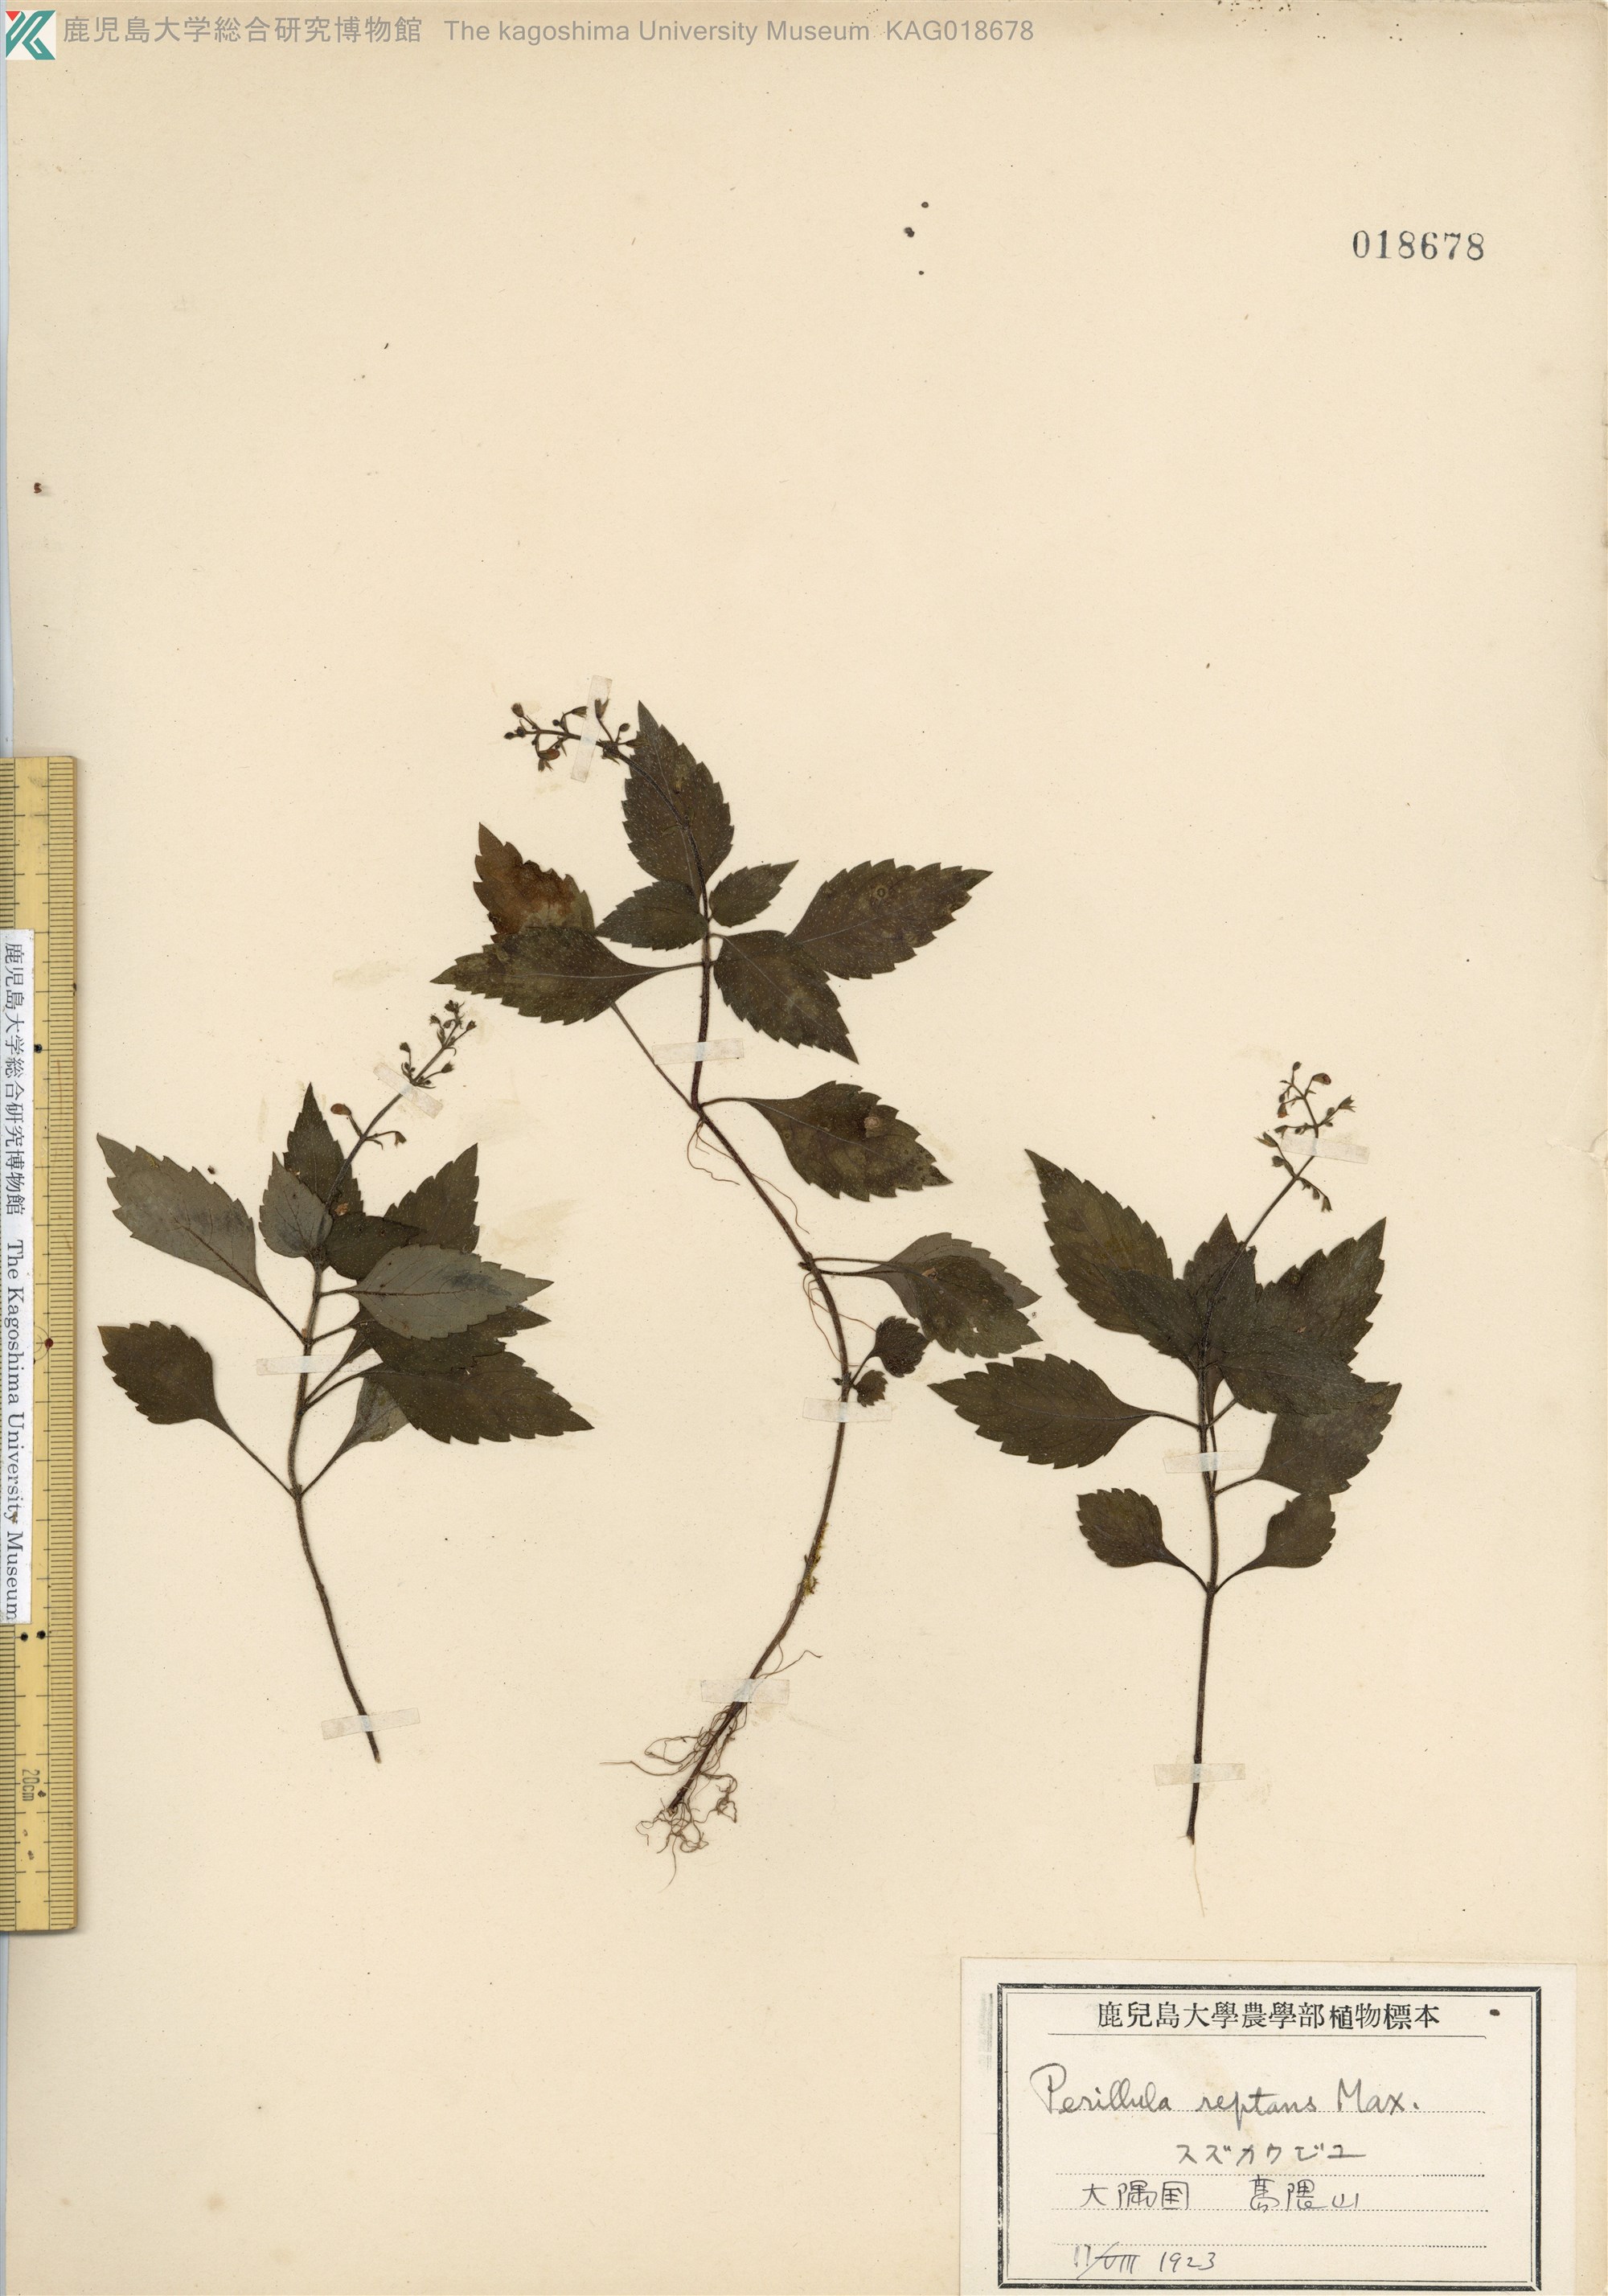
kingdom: Plantae
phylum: Tracheophyta
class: Magnoliopsida
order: Lamiales
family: Lamiaceae
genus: Perillula
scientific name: Perillula reptans
